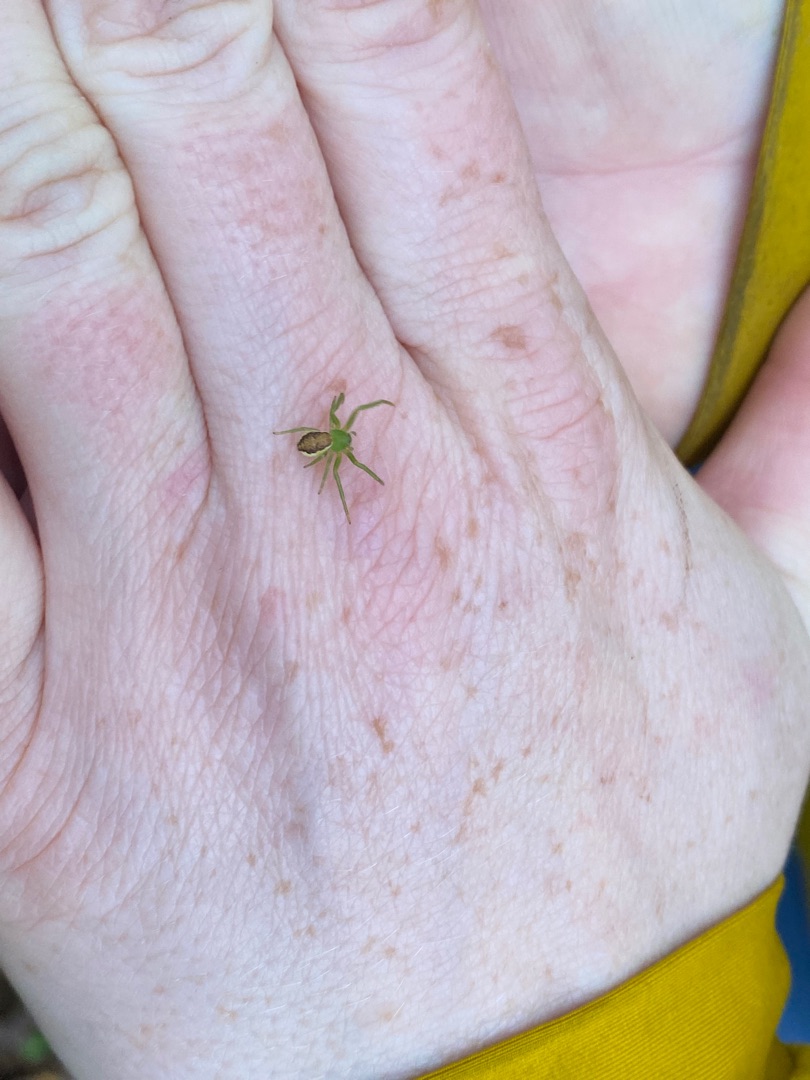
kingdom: Animalia
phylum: Arthropoda
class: Arachnida
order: Araneae
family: Thomisidae
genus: Diaea
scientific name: Diaea dorsata
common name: Grøn krabbeedderkop
